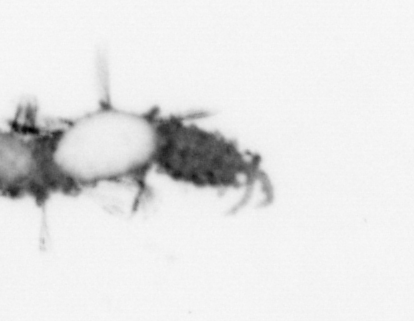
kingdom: Animalia
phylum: Annelida
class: Polychaeta
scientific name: Polychaeta
